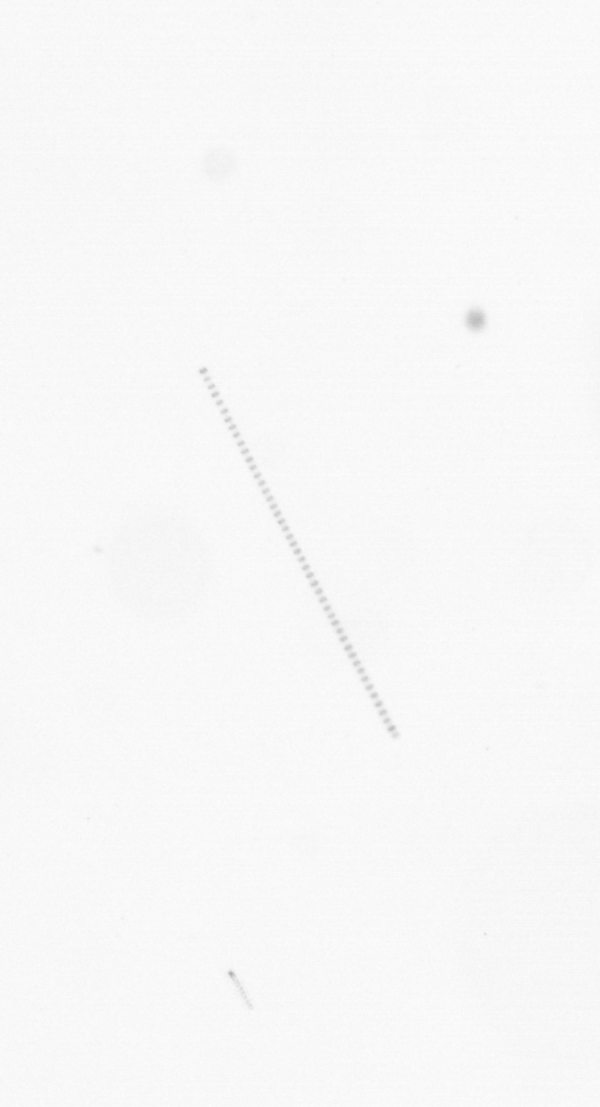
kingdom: Chromista
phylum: Ochrophyta
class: Bacillariophyceae
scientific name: Bacillariophyceae
